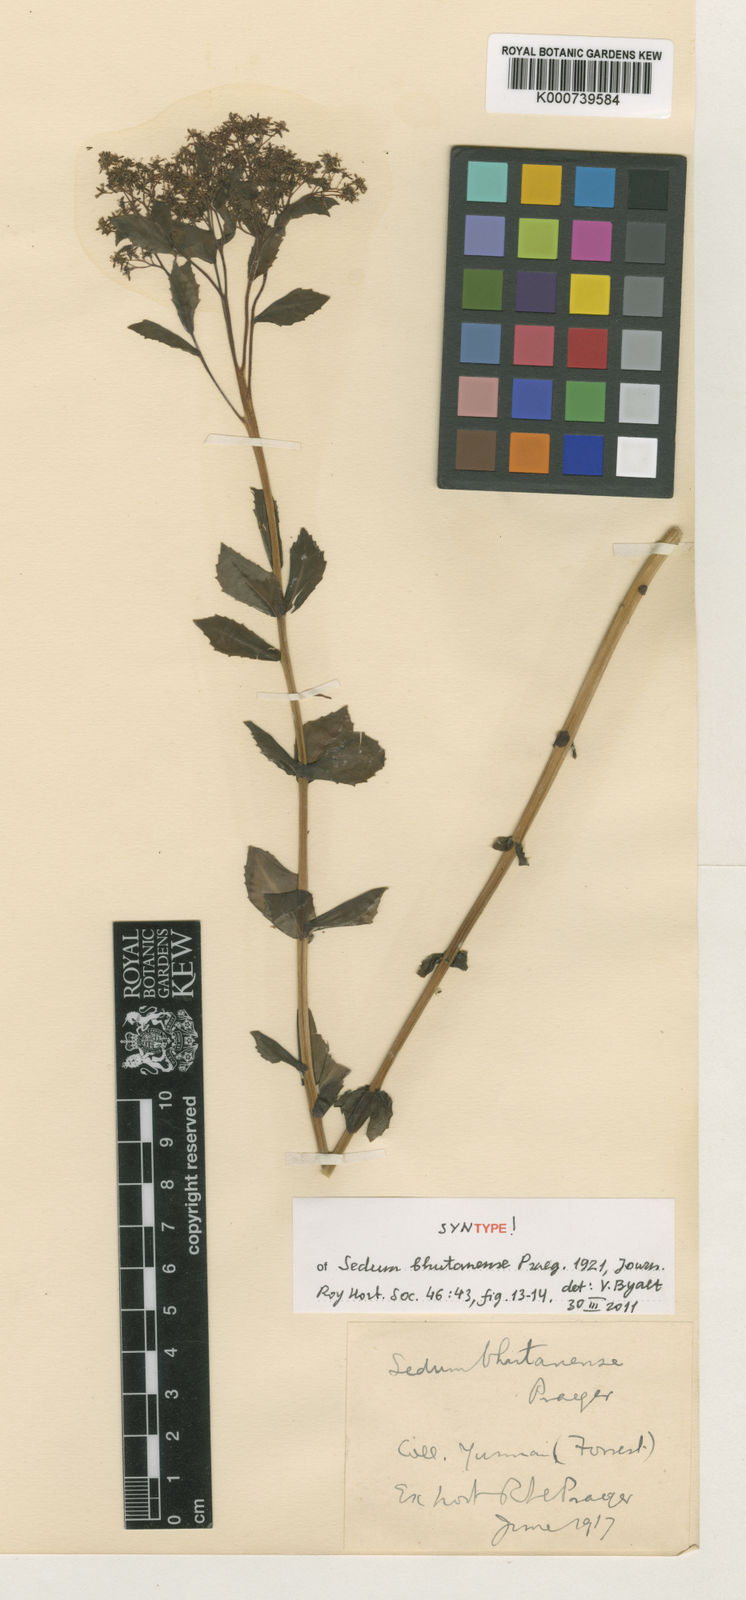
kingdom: Plantae
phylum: Tracheophyta
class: Magnoliopsida
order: Saxifragales
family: Crassulaceae
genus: Rhodiola
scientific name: Rhodiola bupleuroides
